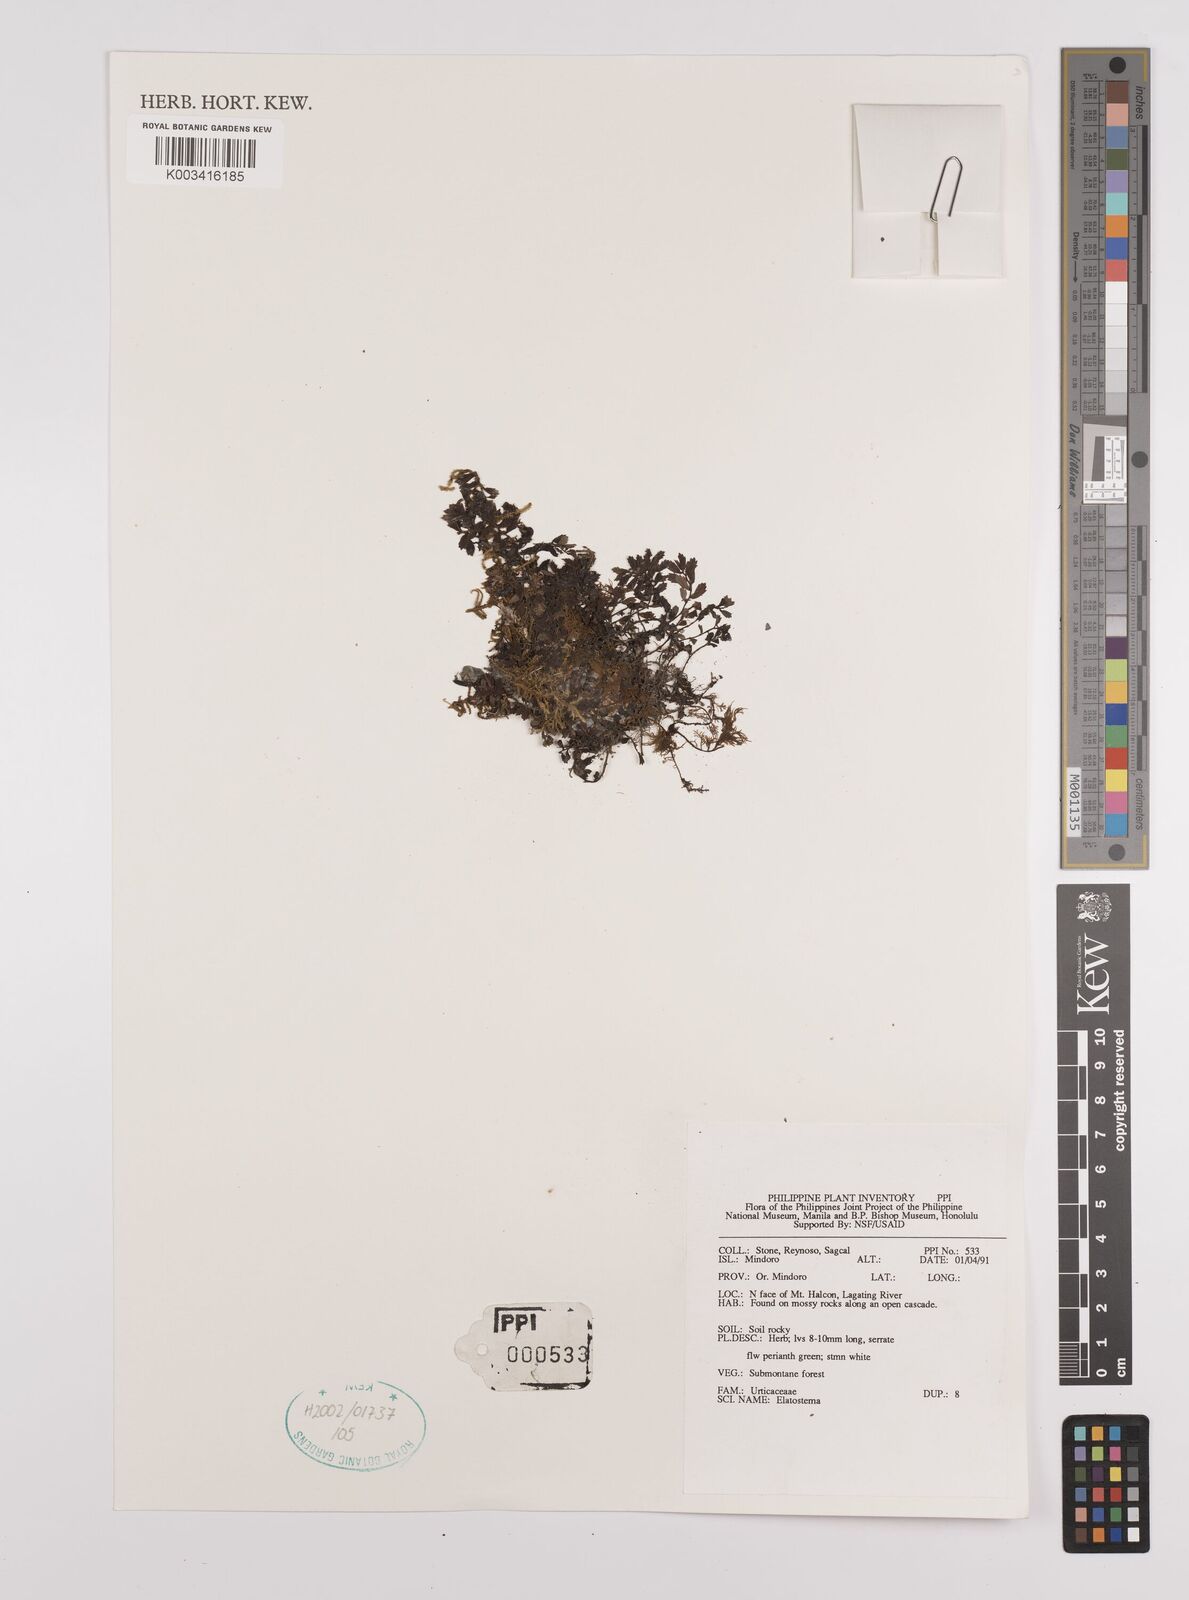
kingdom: Plantae
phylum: Tracheophyta
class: Magnoliopsida
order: Rosales
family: Urticaceae
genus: Elatostema
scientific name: Elatostema
